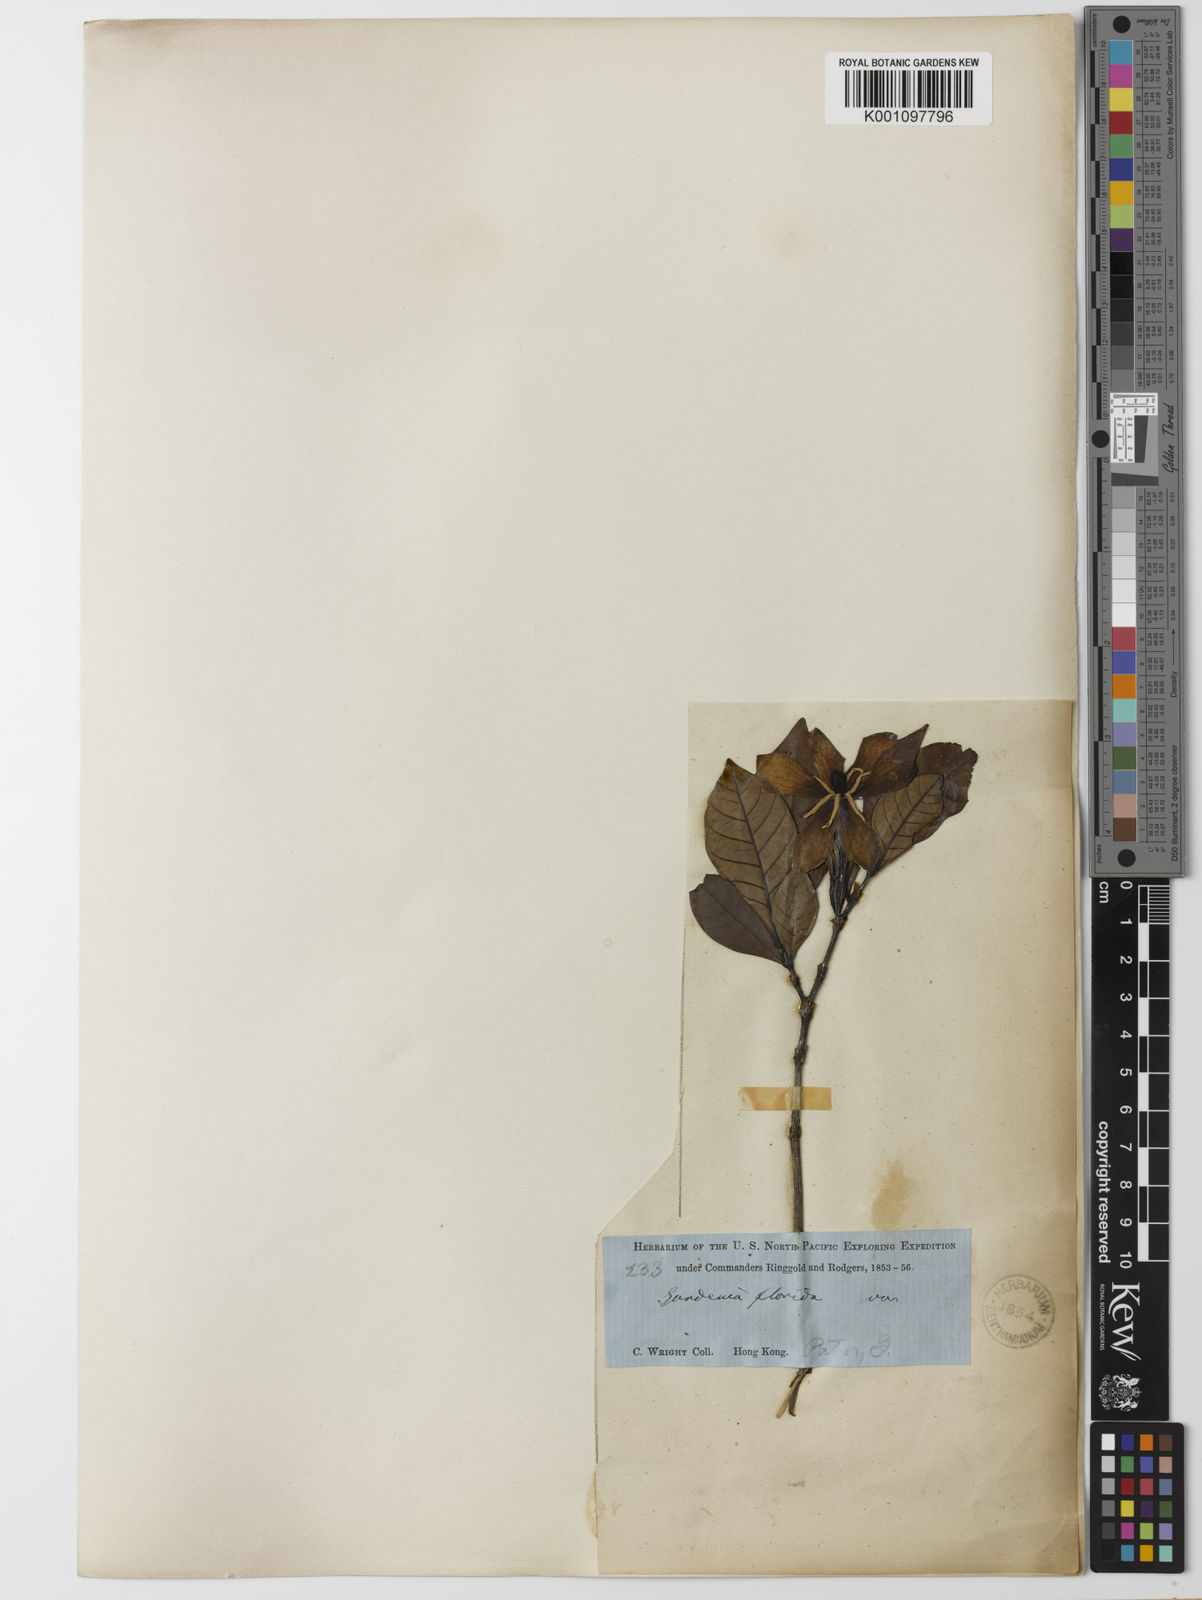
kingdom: Plantae
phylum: Tracheophyta
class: Magnoliopsida
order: Gentianales
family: Rubiaceae
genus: Gardenia
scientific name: Gardenia jasminoides
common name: Cape-jasmine
